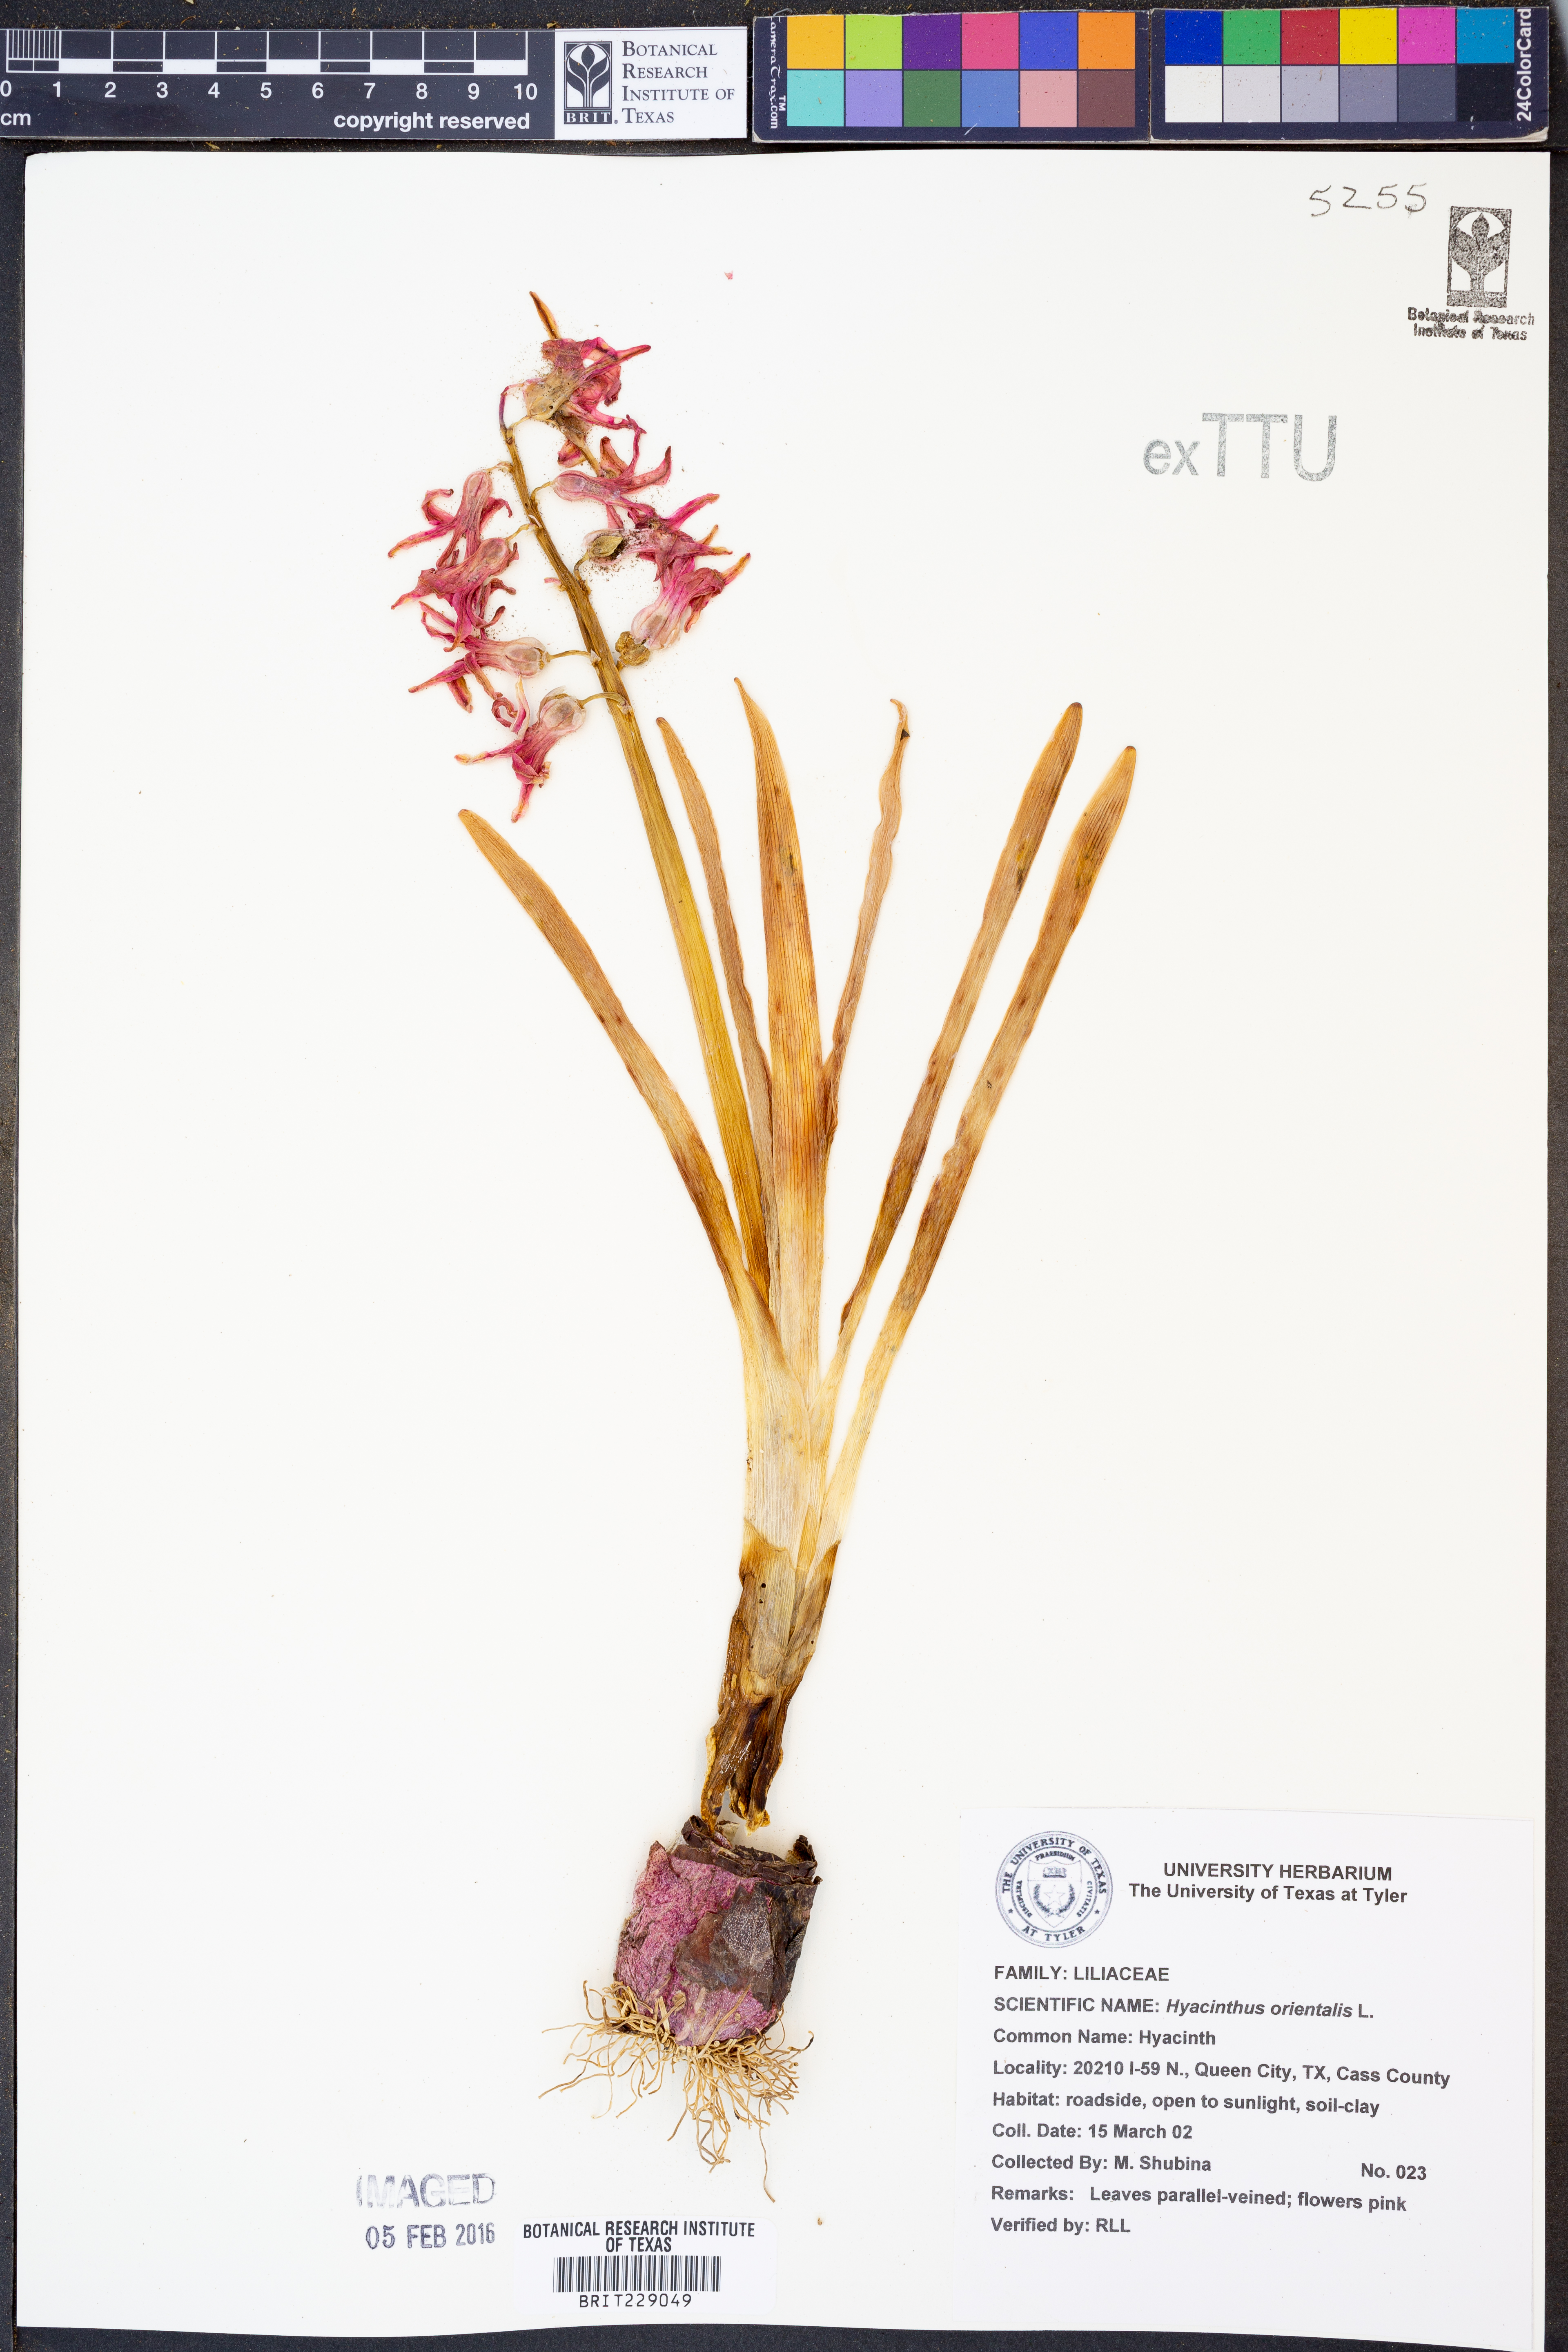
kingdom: Plantae
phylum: Tracheophyta
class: Liliopsida
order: Asparagales
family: Asparagaceae
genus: Hyacinthus
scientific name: Hyacinthus orientalis
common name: Hyacinth
